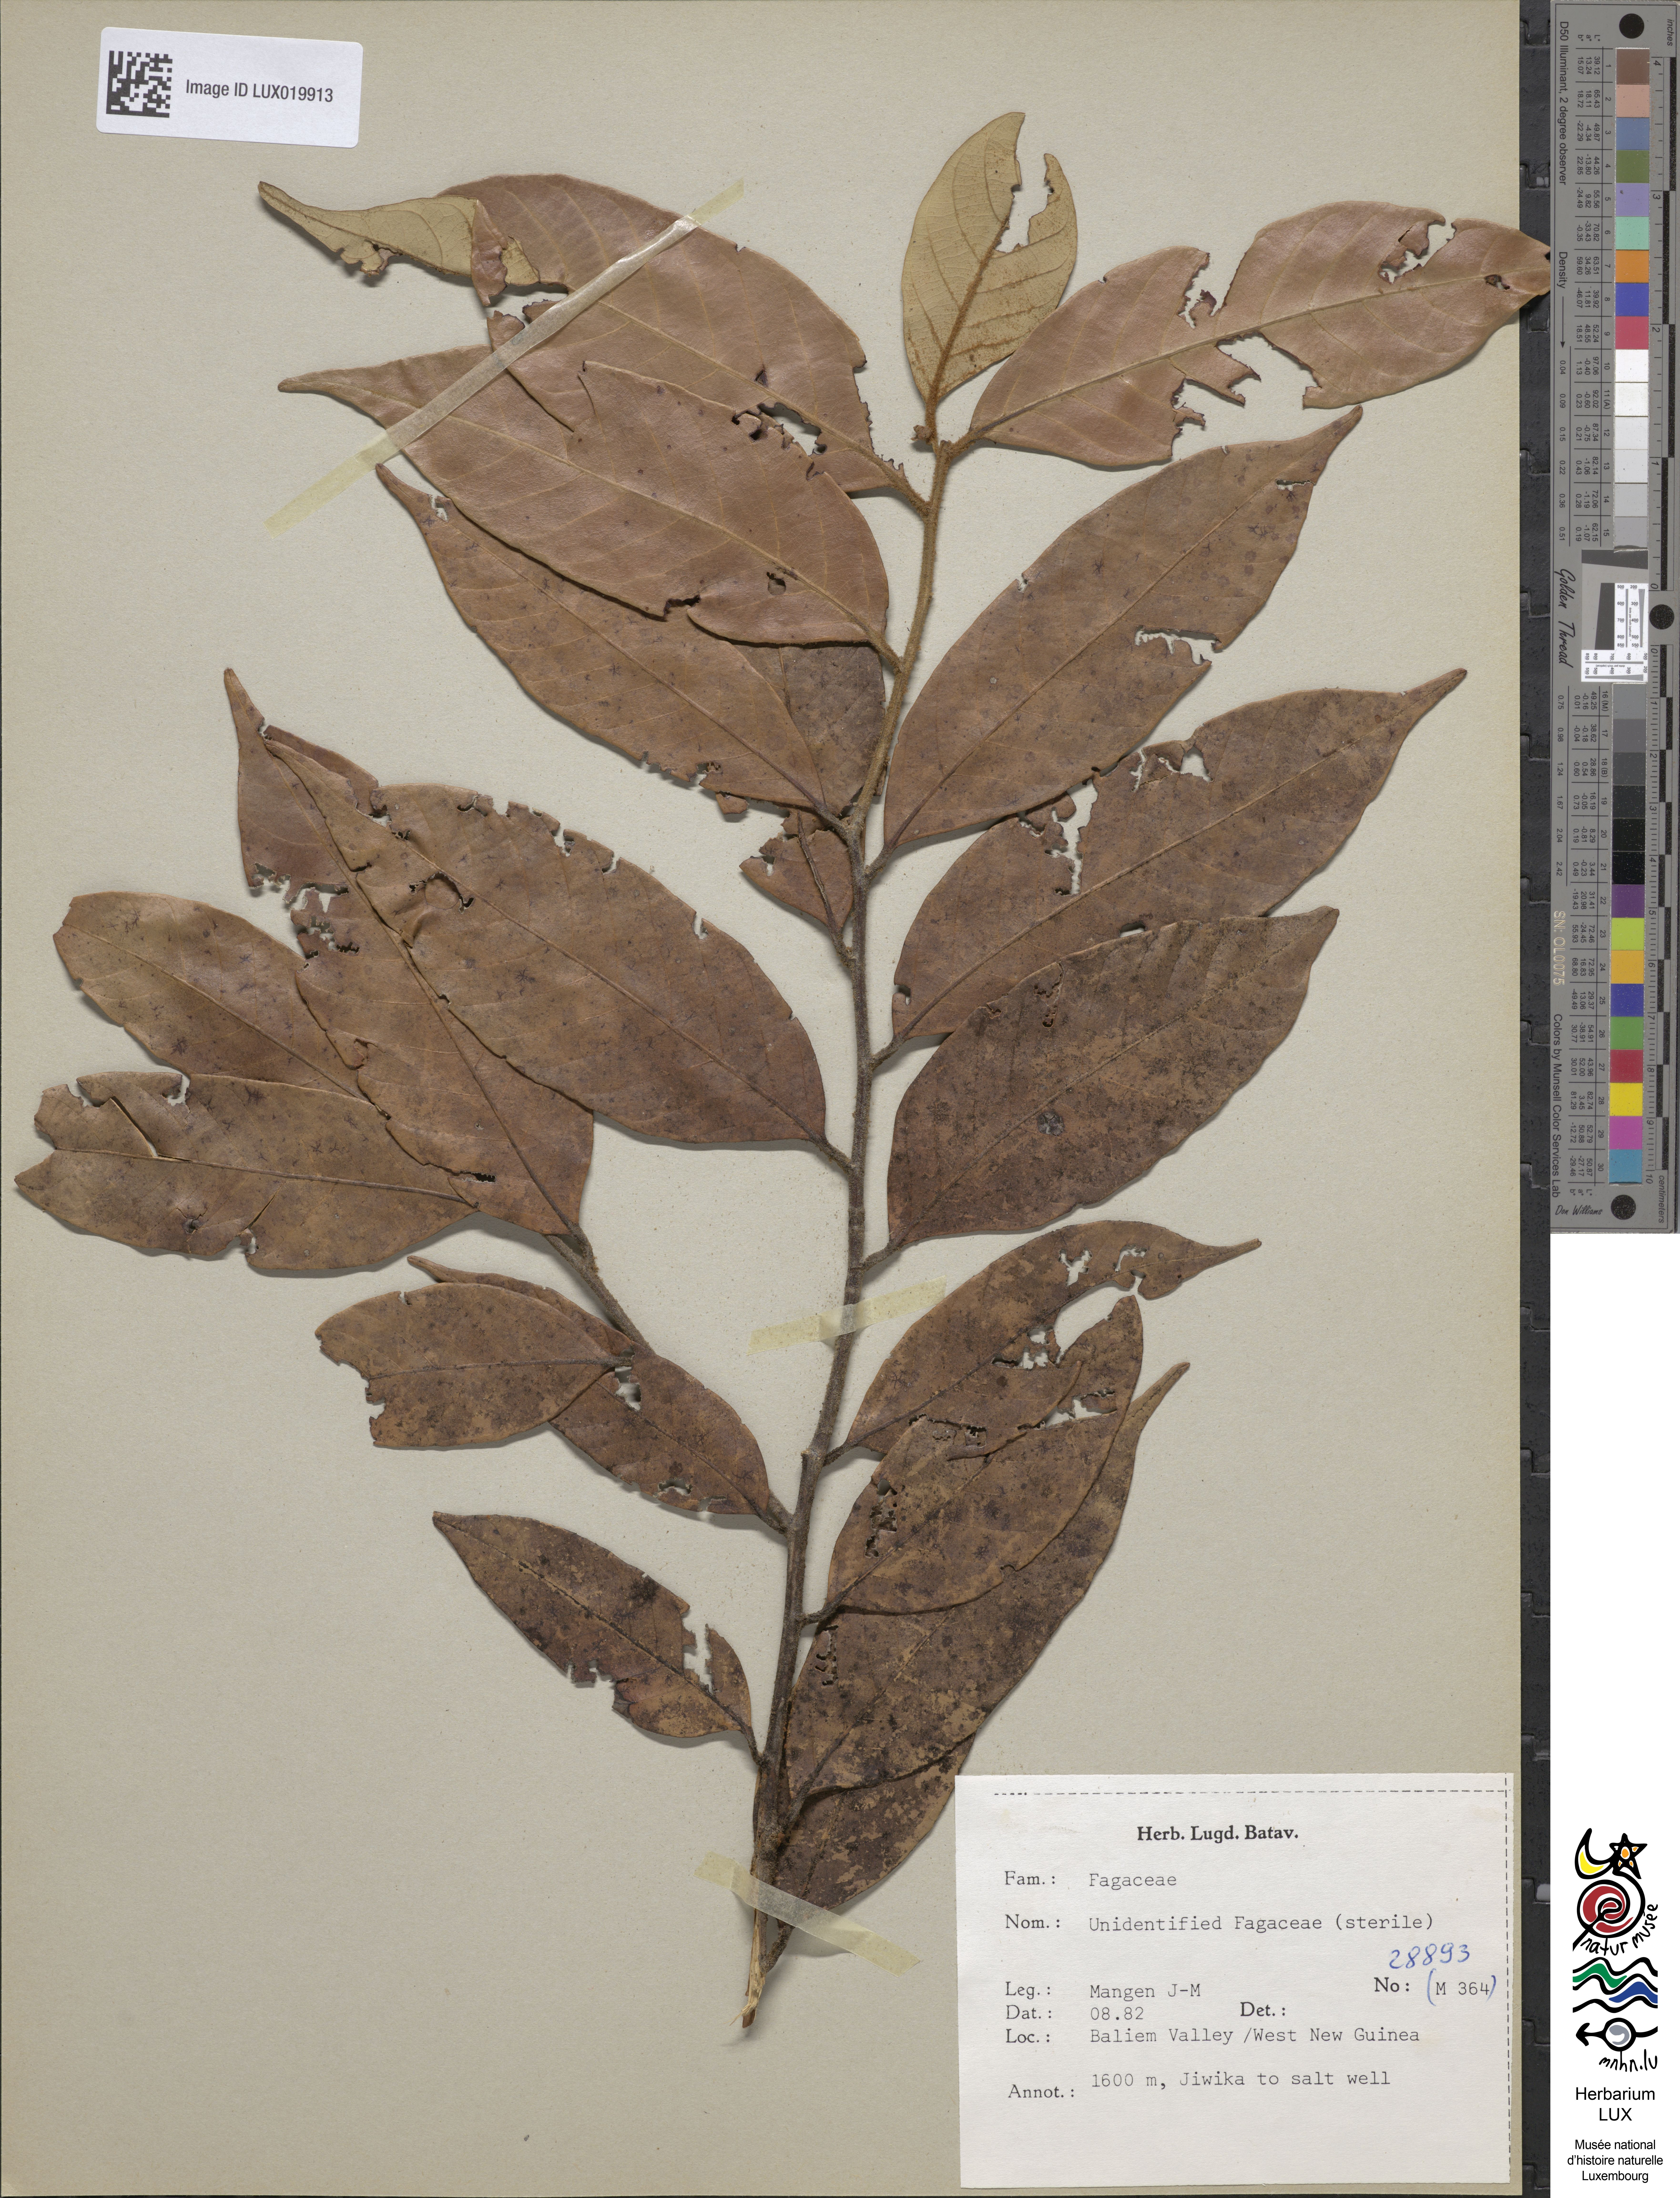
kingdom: Plantae
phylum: Tracheophyta
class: Magnoliopsida
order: Fagales
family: Fagaceae
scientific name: Fagaceae
